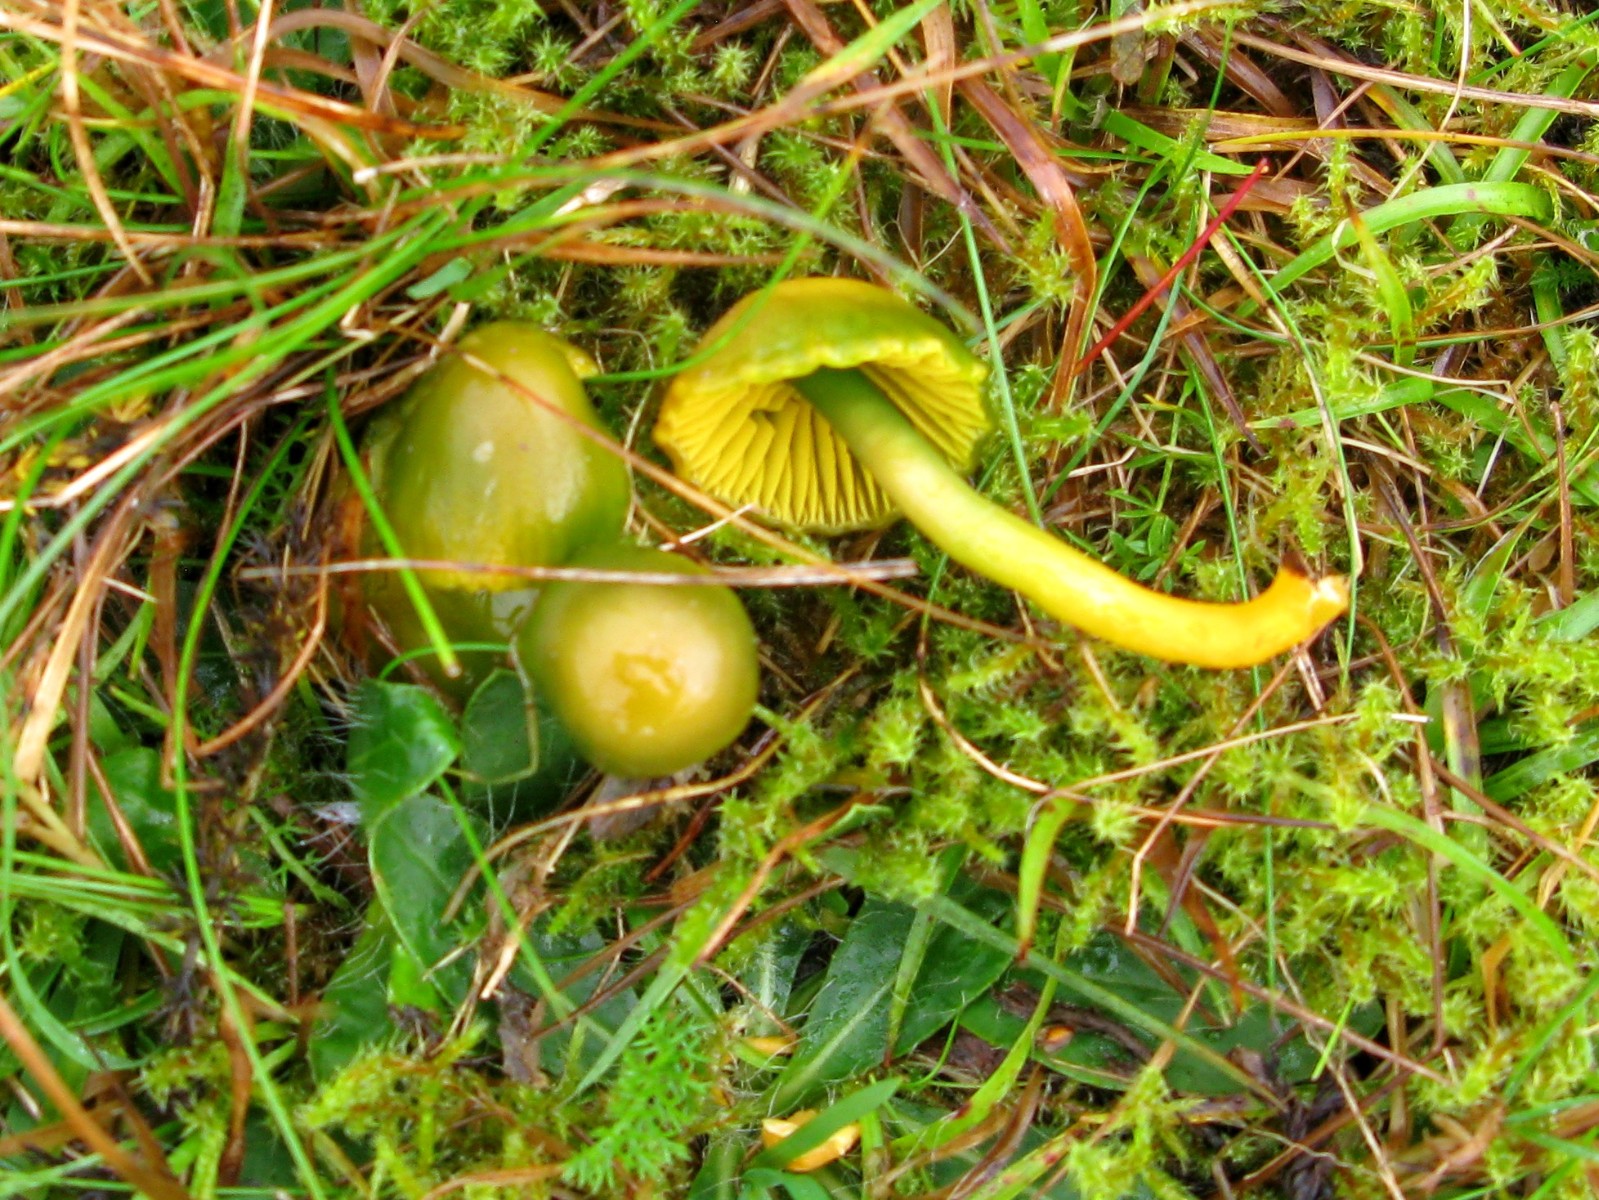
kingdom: Fungi
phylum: Basidiomycota
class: Agaricomycetes
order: Agaricales
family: Hygrophoraceae
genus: Gliophorus
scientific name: Gliophorus psittacinus
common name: papegøje-vokshat
